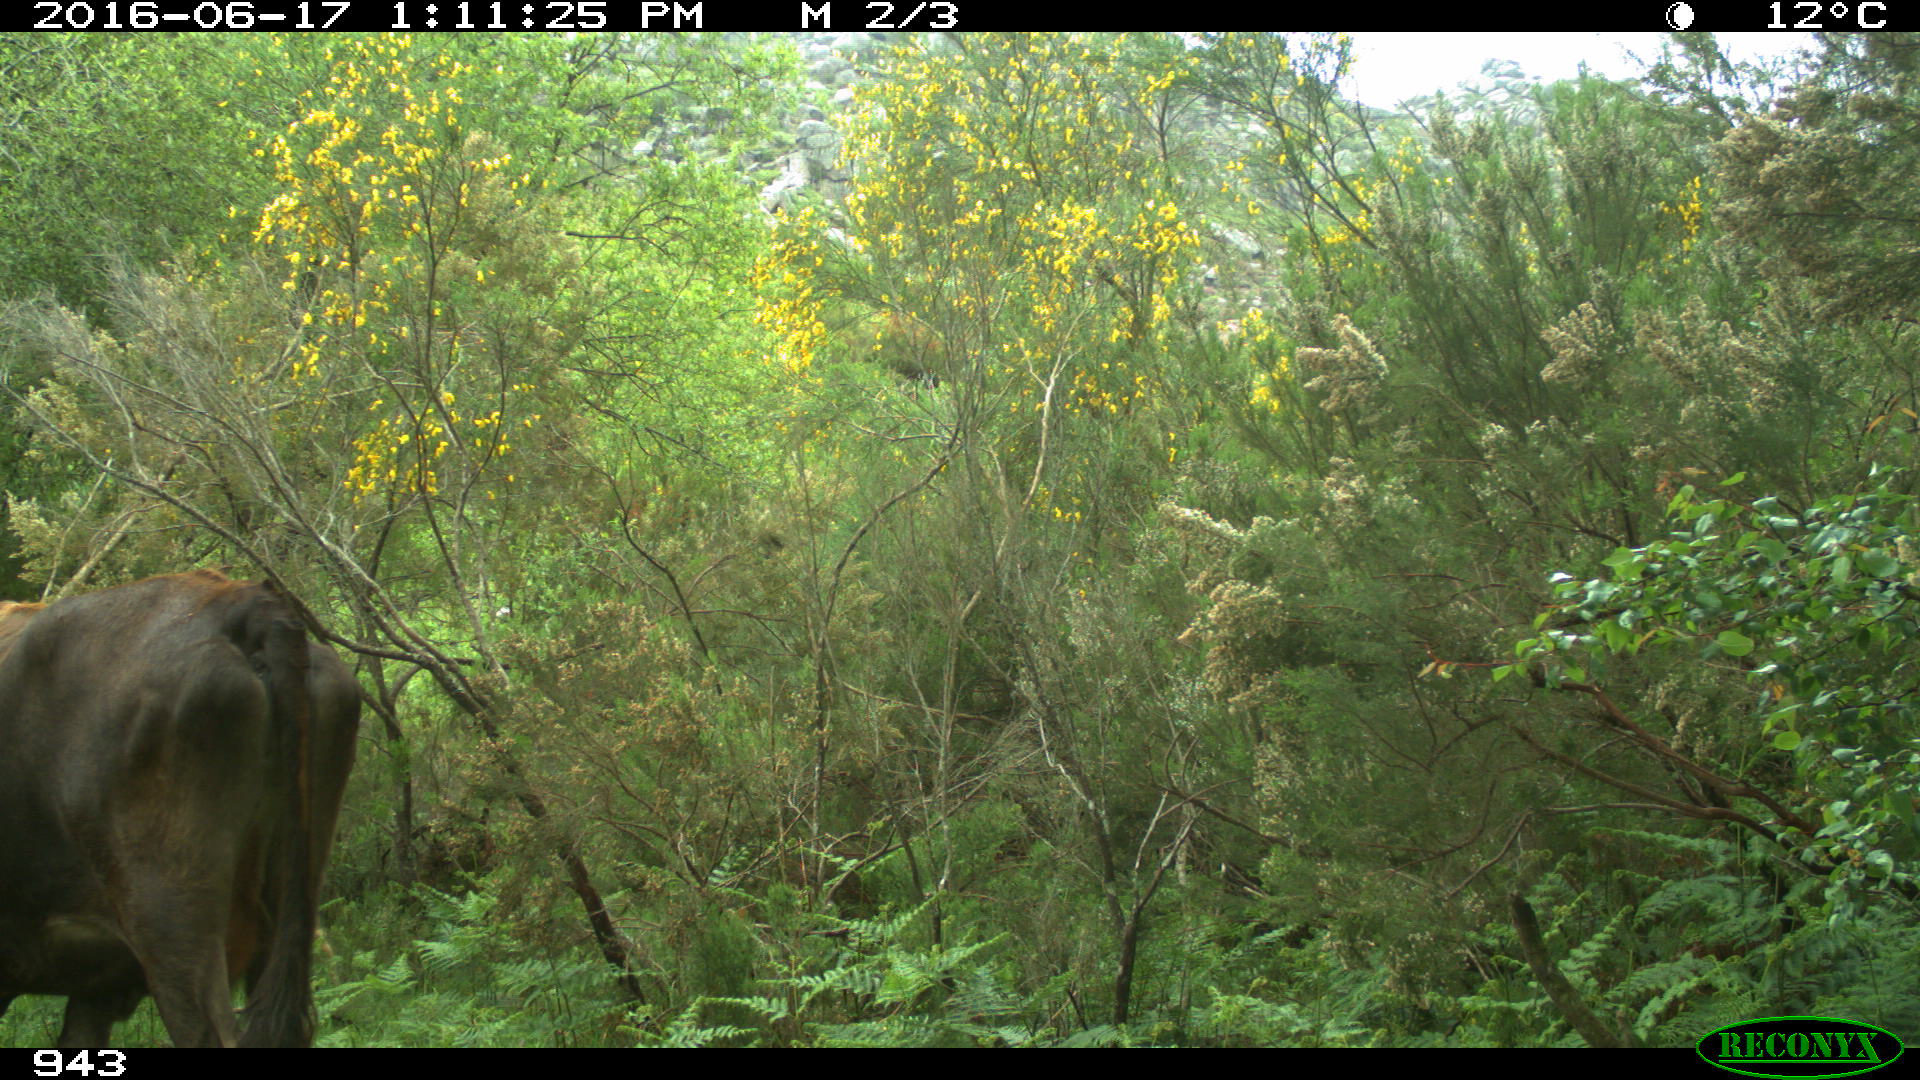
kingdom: Animalia
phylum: Chordata
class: Mammalia
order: Artiodactyla
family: Bovidae
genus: Bos
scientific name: Bos taurus
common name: Domesticated cattle
